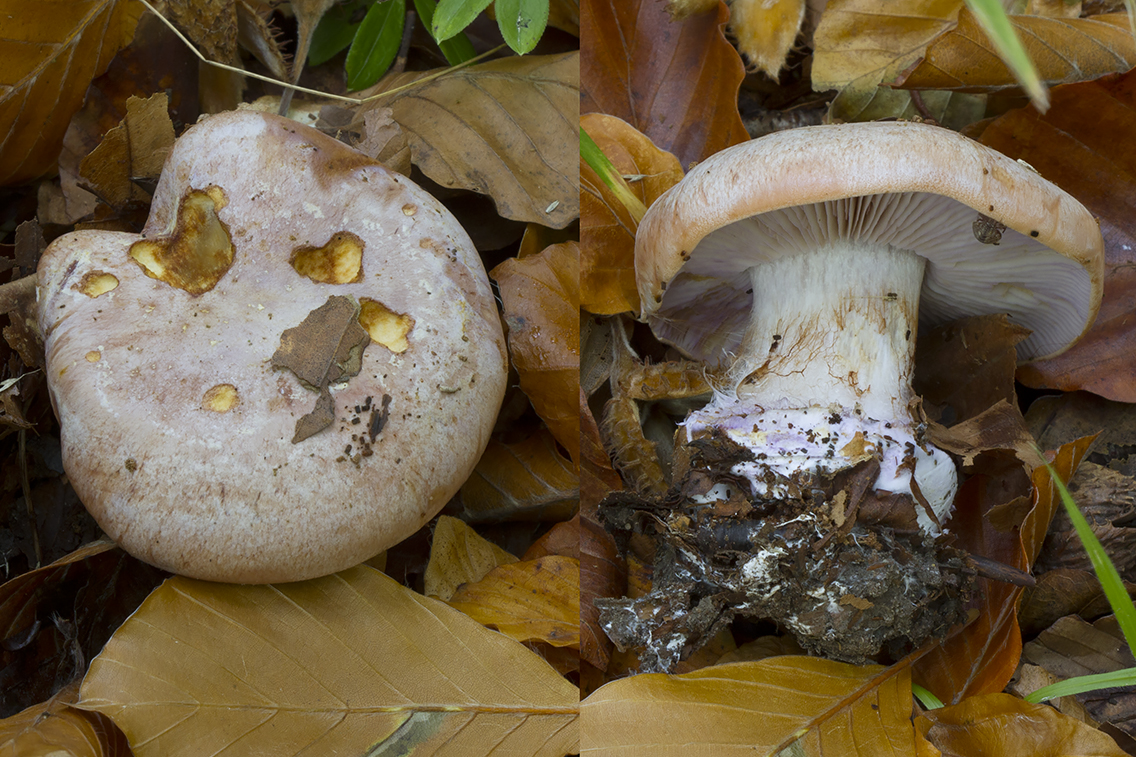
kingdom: Fungi
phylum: Basidiomycota
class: Agaricomycetes
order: Agaricales
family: Cortinariaceae
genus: Calonarius
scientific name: Calonarius arcuatorum
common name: violetflaget slørhat
